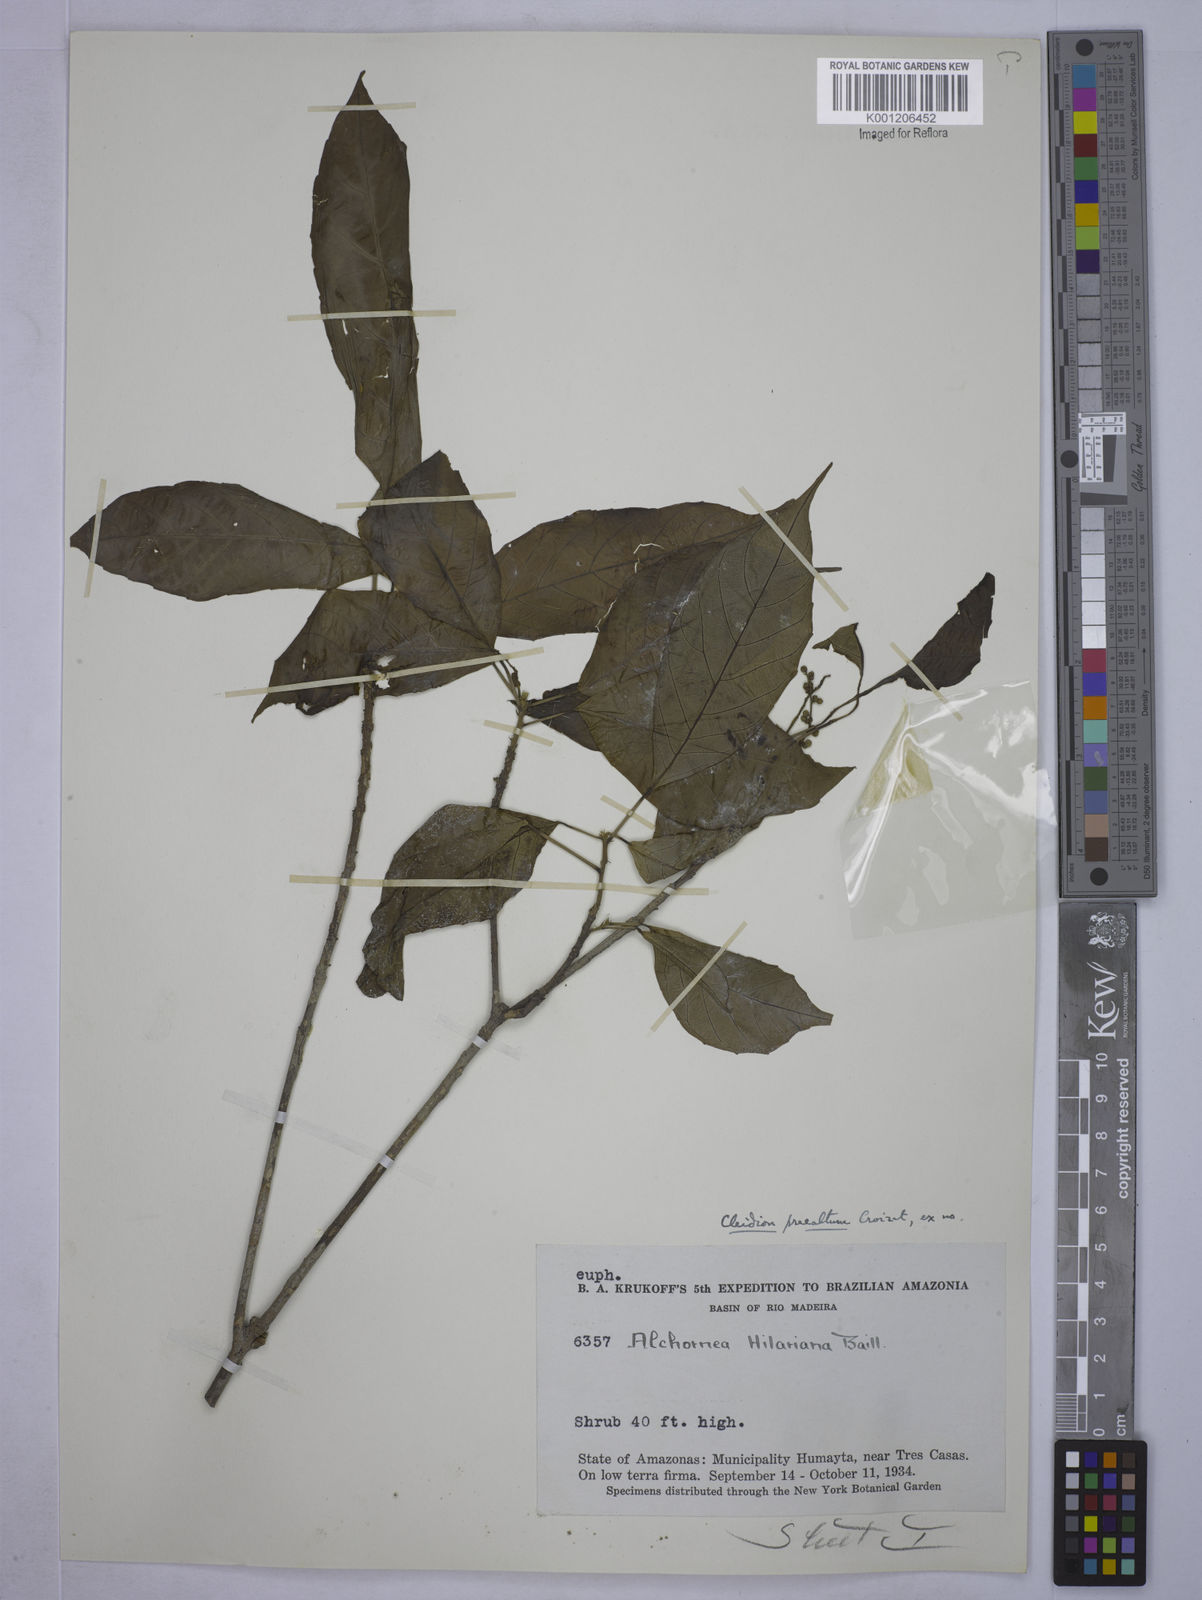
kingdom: Plantae
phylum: Tracheophyta
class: Magnoliopsida
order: Malpighiales
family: Euphorbiaceae
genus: Conceveiba
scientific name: Conceveiba praealta
